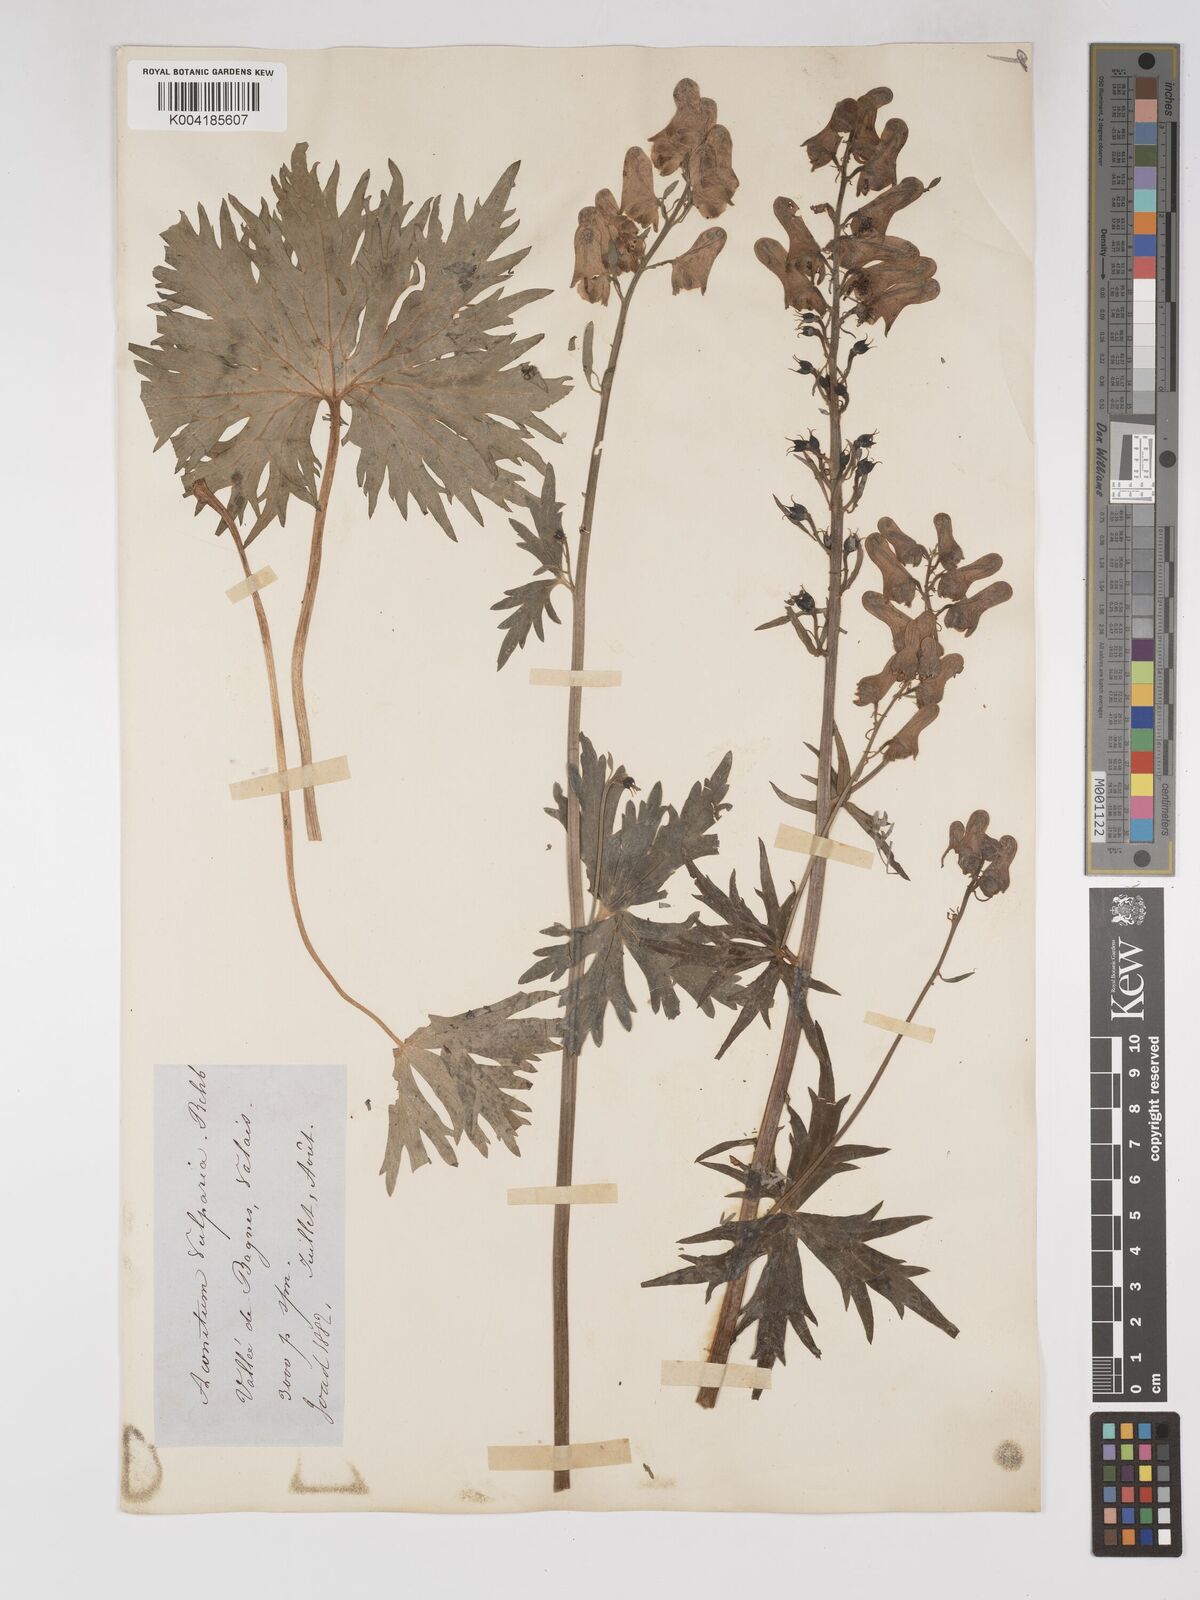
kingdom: Plantae
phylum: Tracheophyta
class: Magnoliopsida
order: Ranunculales
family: Ranunculaceae
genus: Aconitum
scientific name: Aconitum lycoctonum
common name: Wolf's-bane
